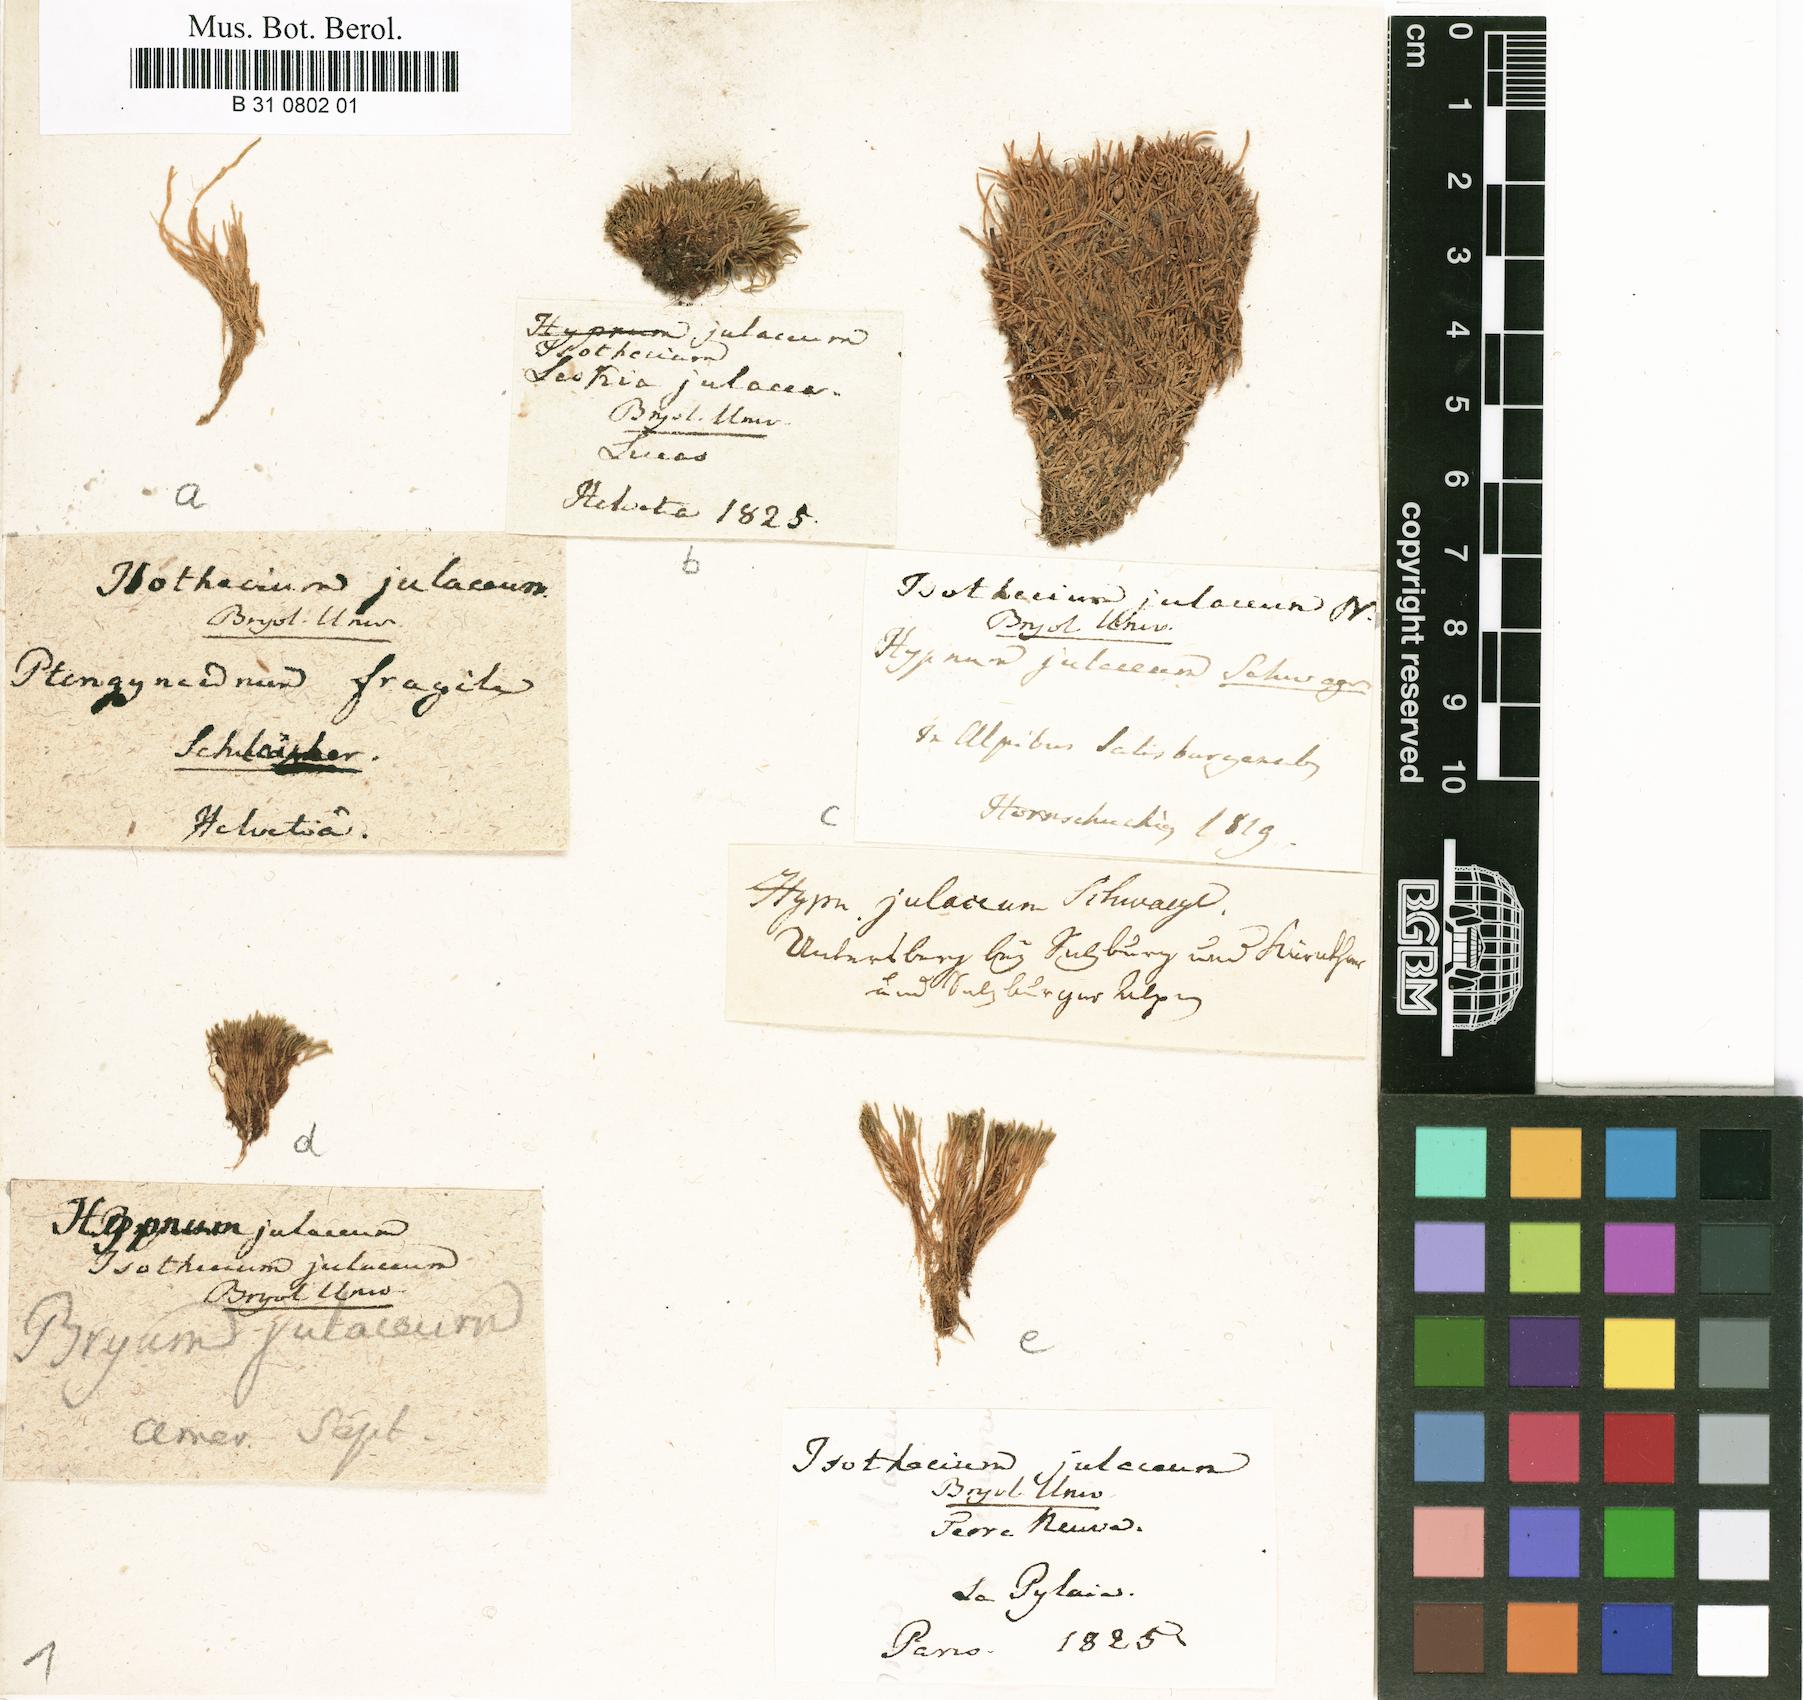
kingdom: Plantae
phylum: Bryophyta
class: Bryopsida
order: Hypnales
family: Plagiotheciaceae
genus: Myurella
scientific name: Myurella julacea
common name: Small mousetail moss
